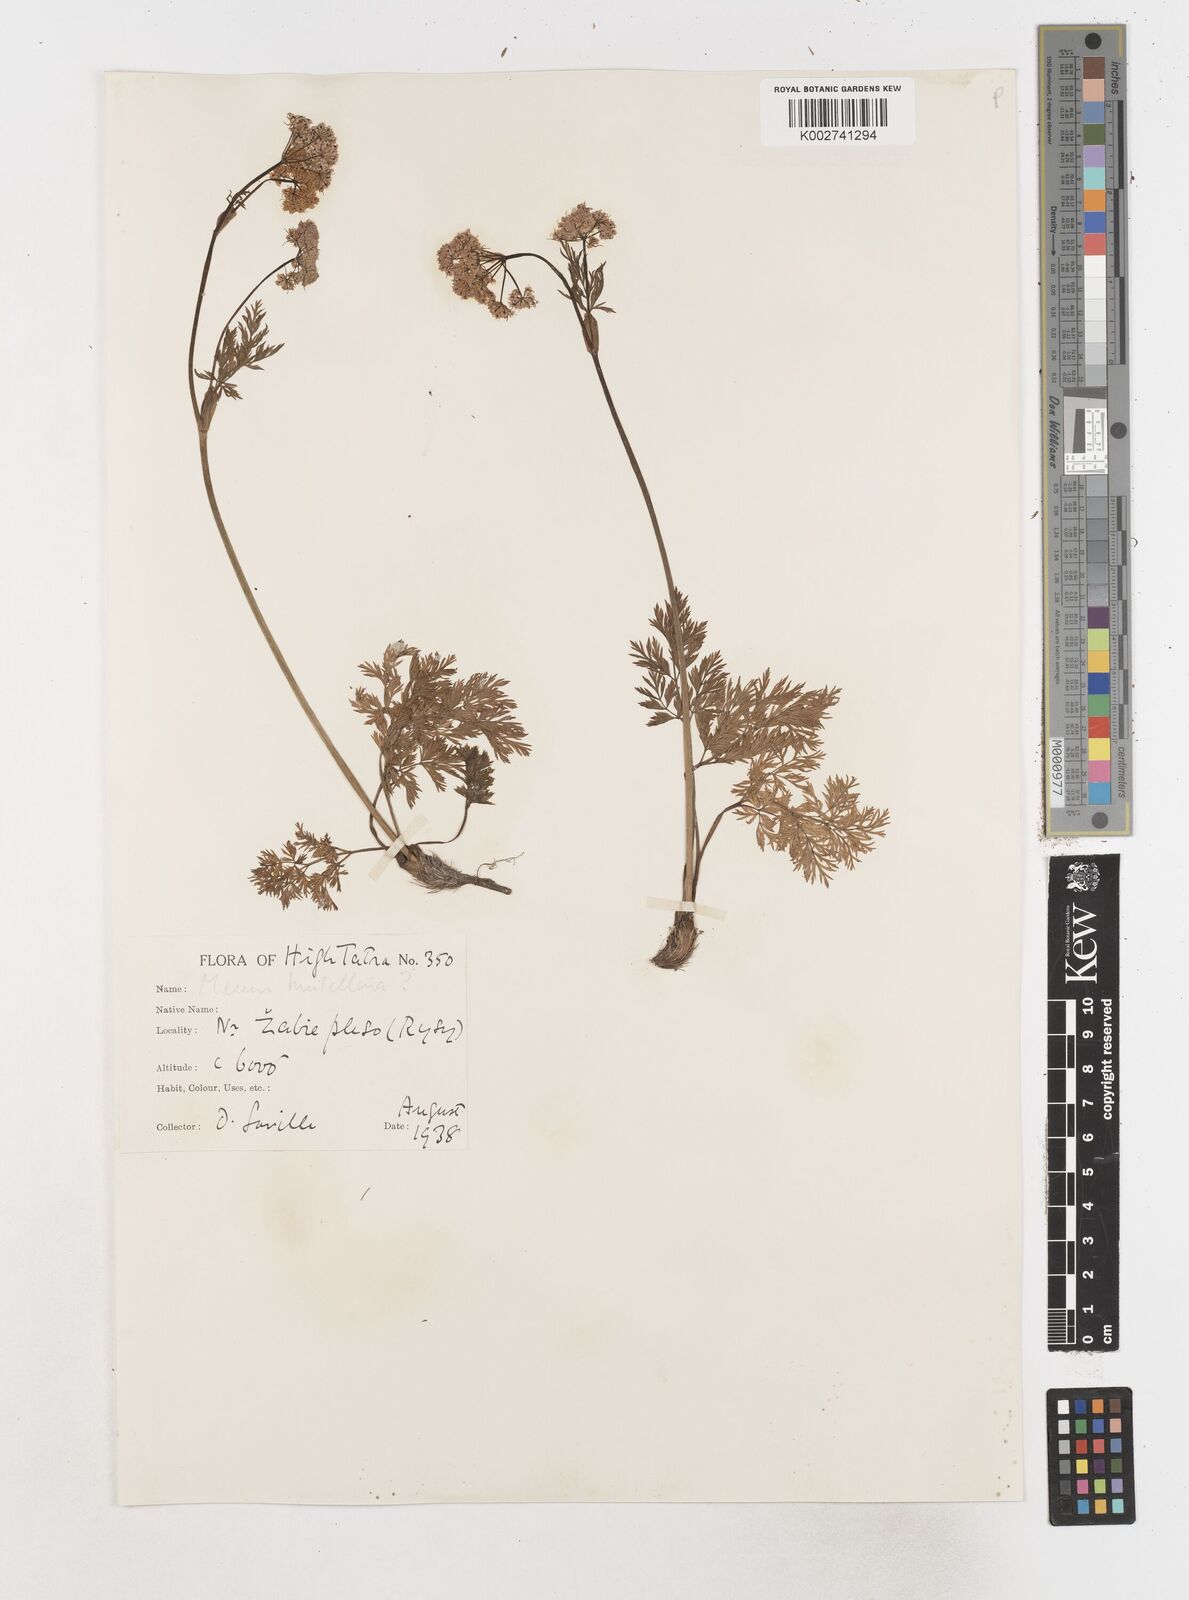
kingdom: Plantae
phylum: Tracheophyta
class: Magnoliopsida
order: Apiales
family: Apiaceae
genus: Mutellina
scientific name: Mutellina adonidifolia
